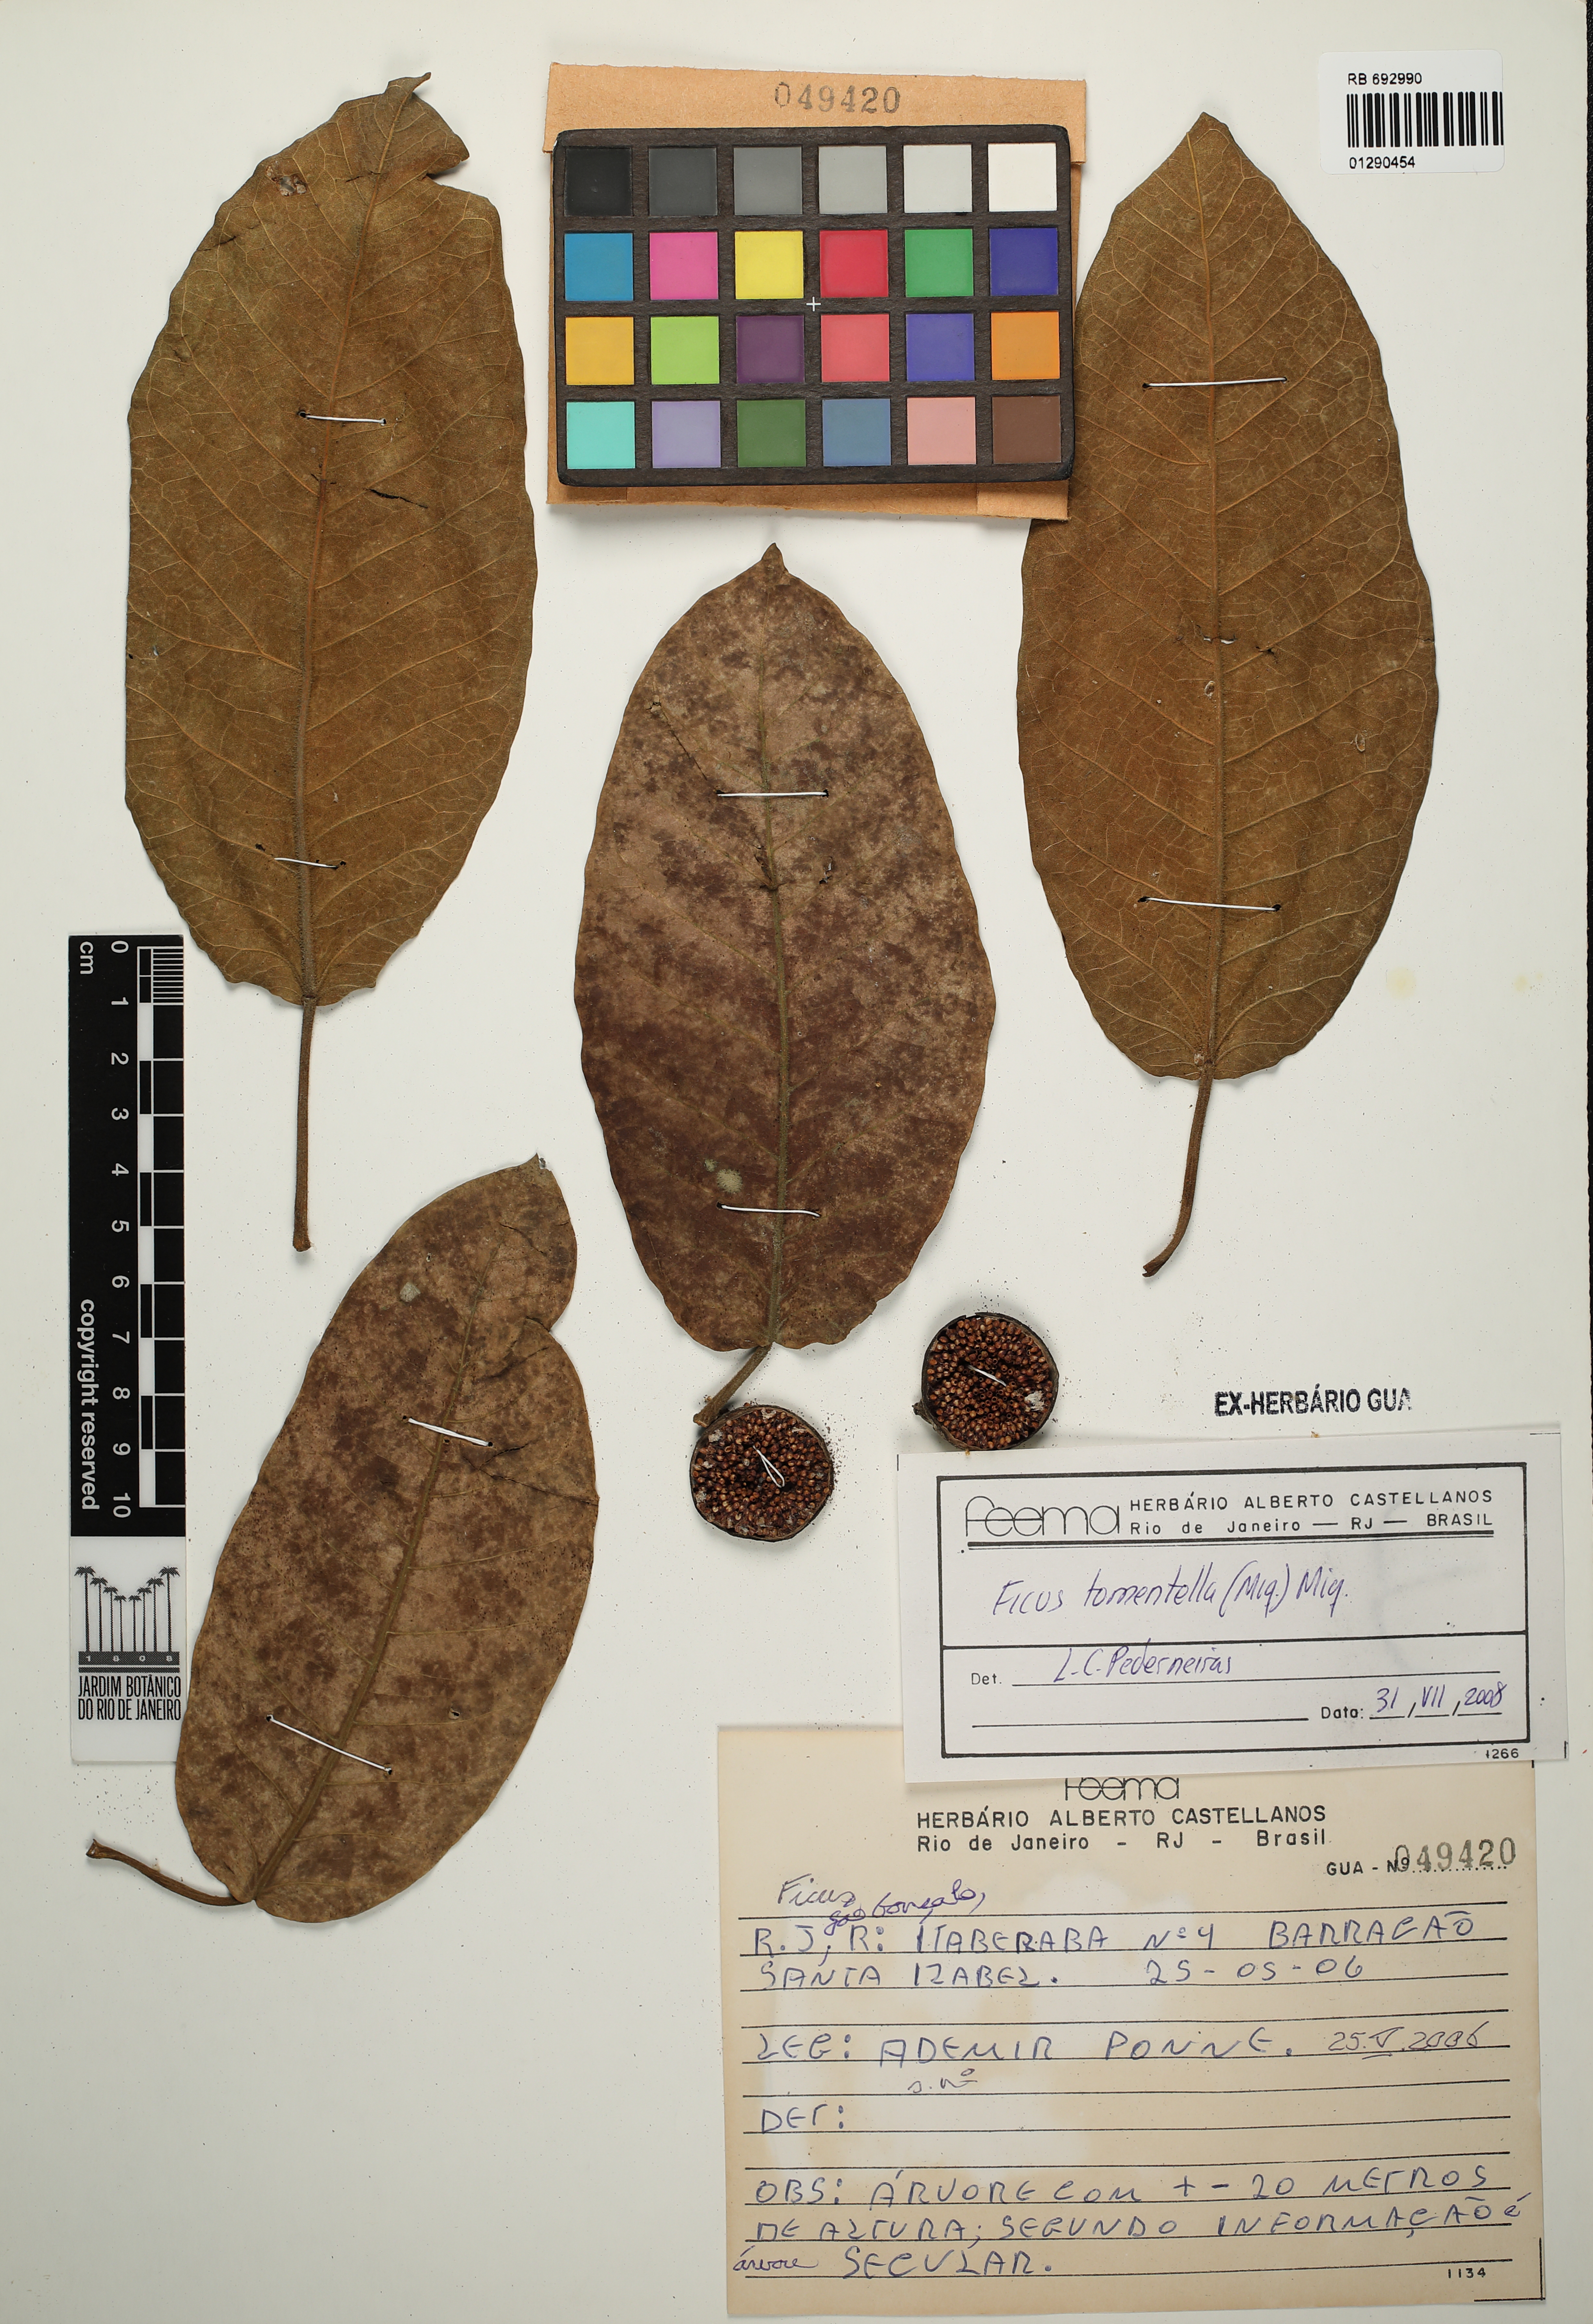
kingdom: Plantae
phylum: Tracheophyta
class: Magnoliopsida
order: Rosales
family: Moraceae
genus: Ficus
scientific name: Ficus crocata
